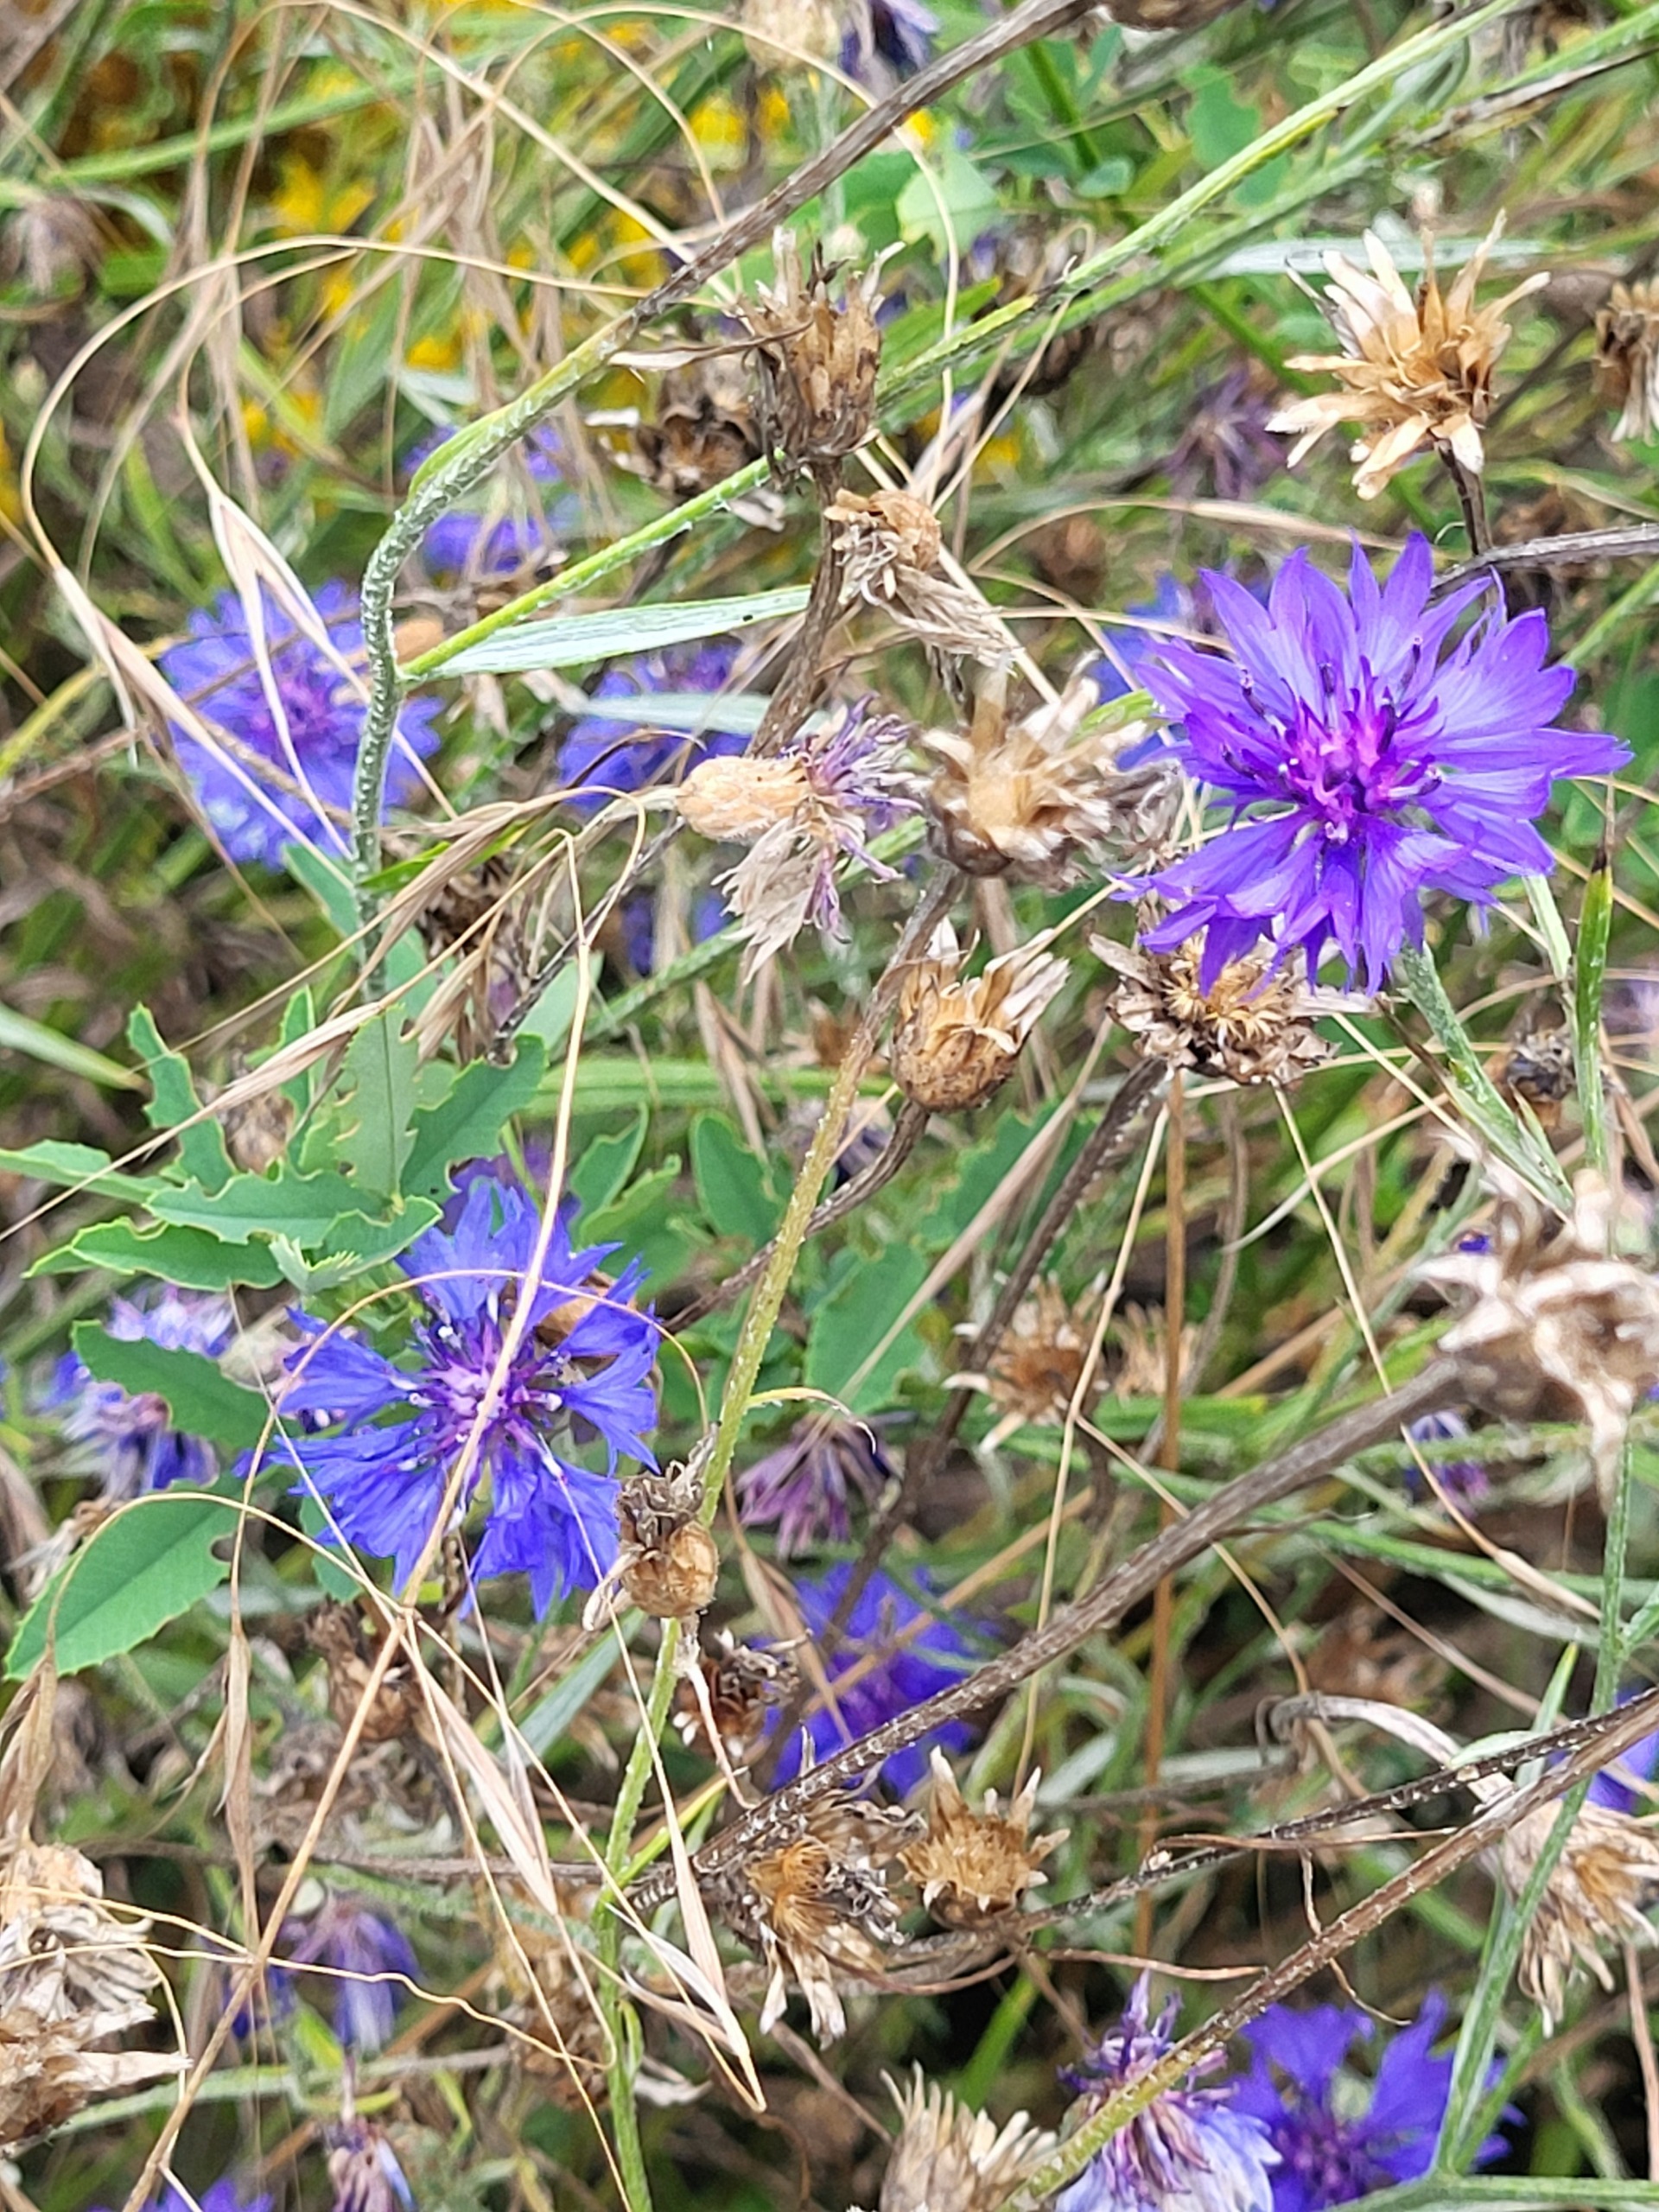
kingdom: Plantae
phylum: Tracheophyta
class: Magnoliopsida
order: Asterales
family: Asteraceae
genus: Centaurea
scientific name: Centaurea cyanus
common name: Kornblomst
